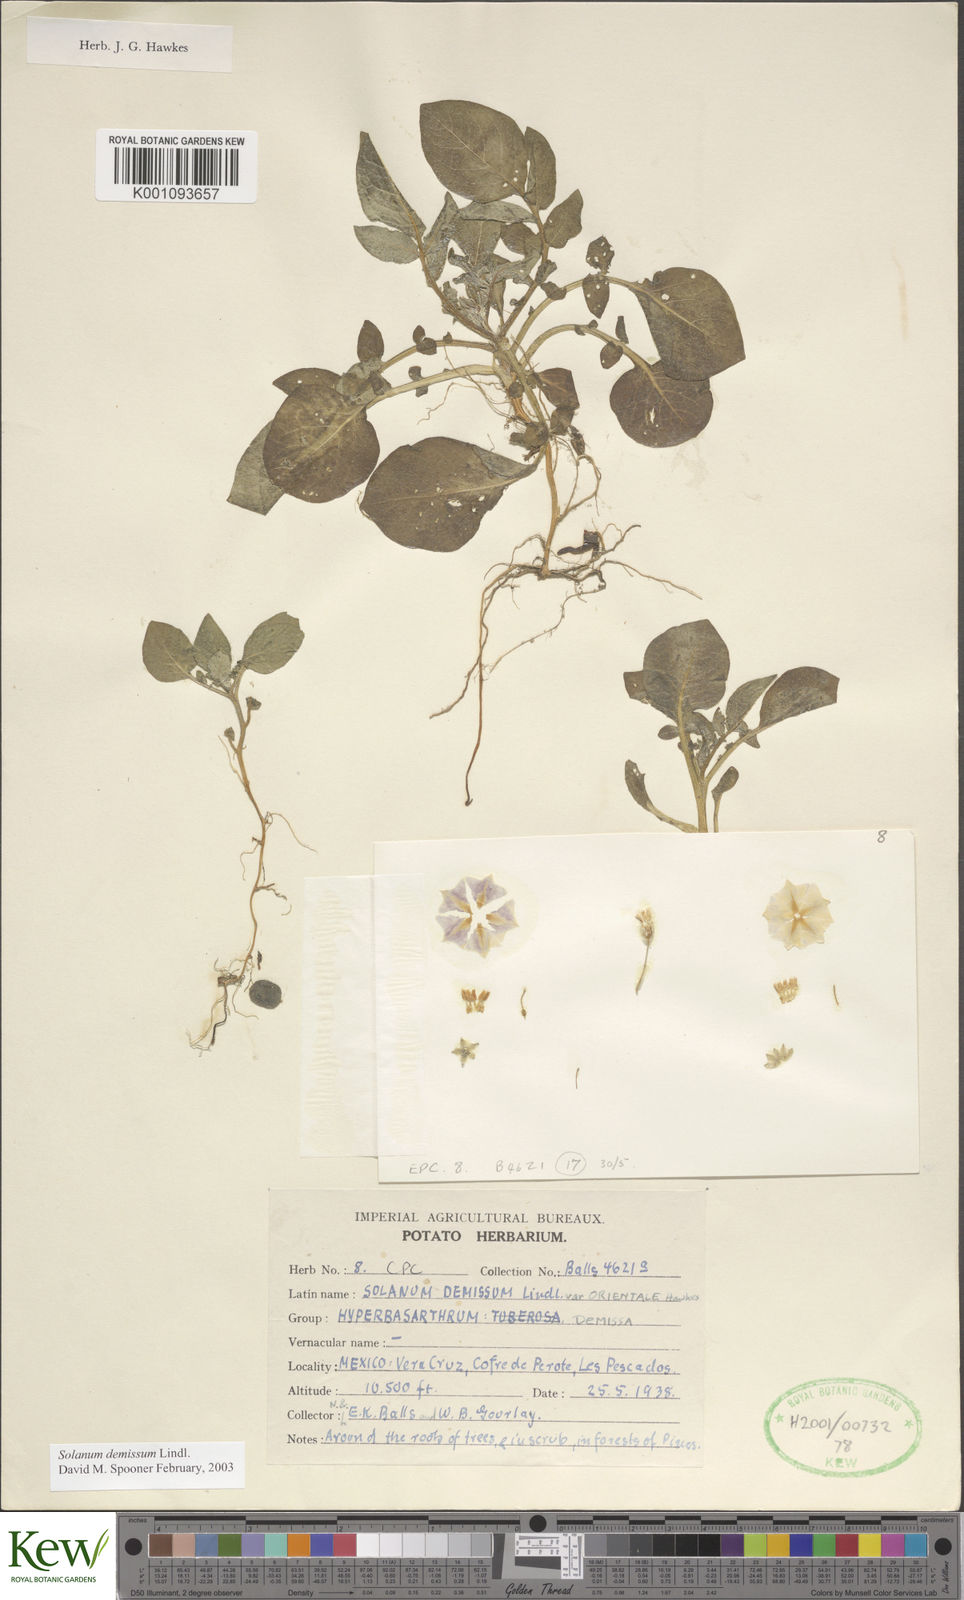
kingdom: Plantae
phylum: Tracheophyta
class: Magnoliopsida
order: Solanales
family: Solanaceae
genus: Solanum
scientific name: Solanum demissum
